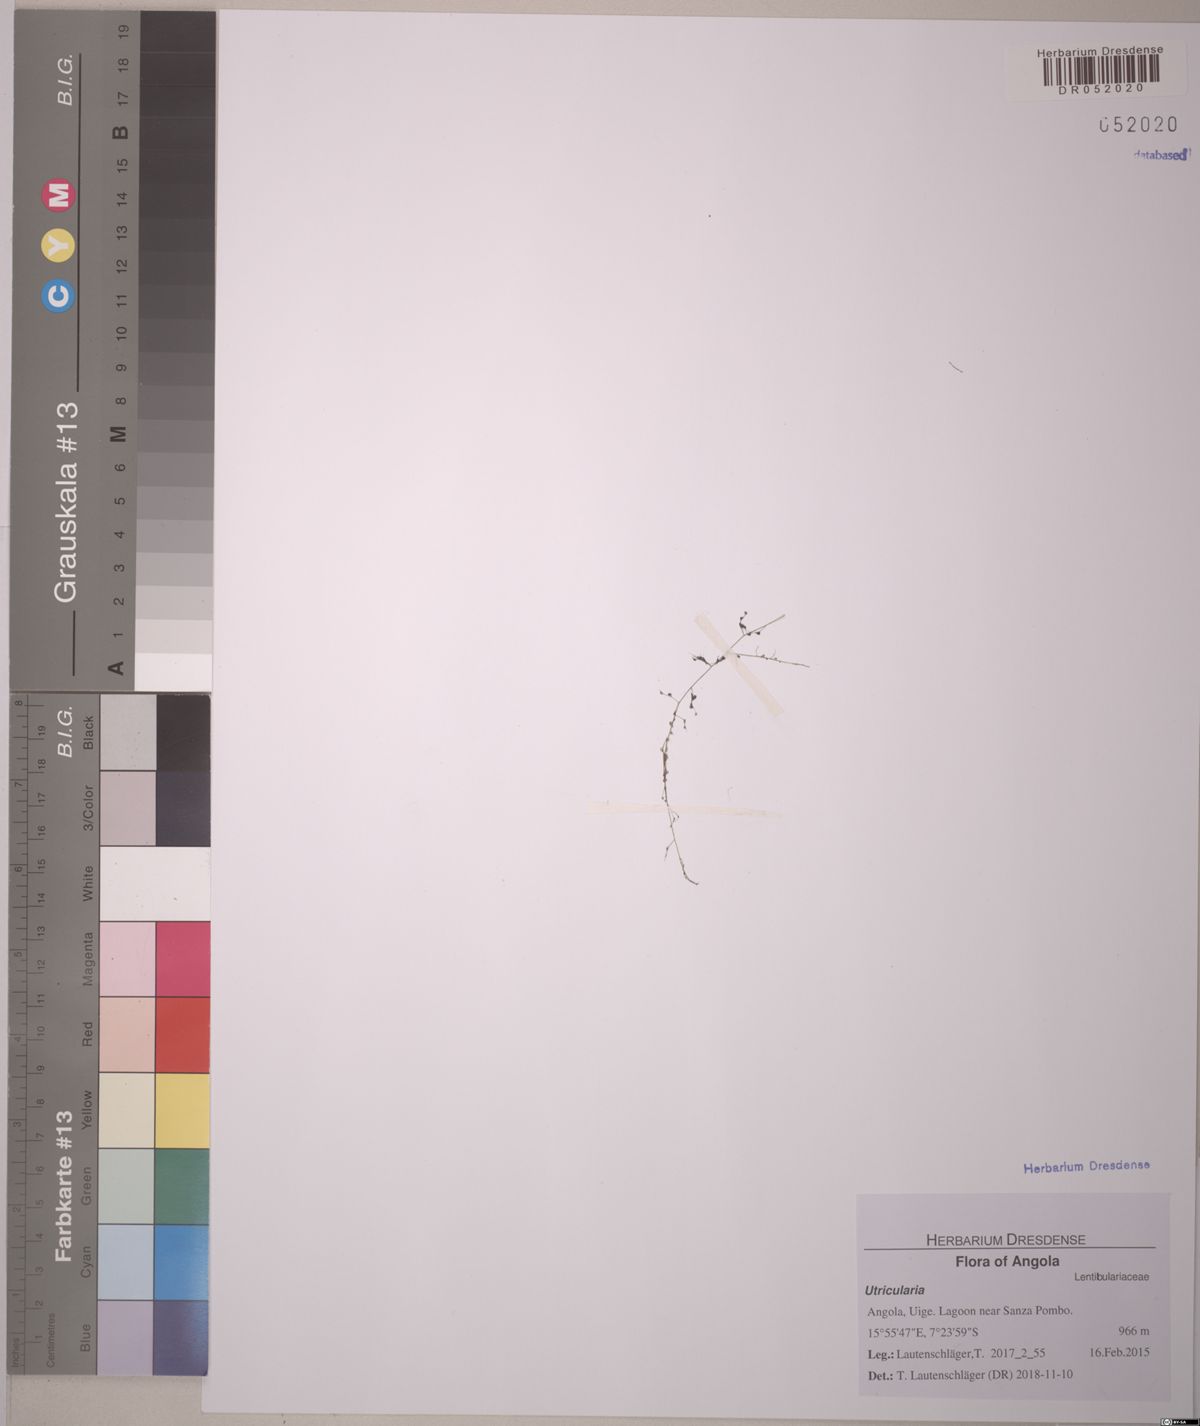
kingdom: Plantae
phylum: Tracheophyta
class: Magnoliopsida
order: Sapindales
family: Sapindaceae
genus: Allophylus
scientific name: Allophylus africanus
